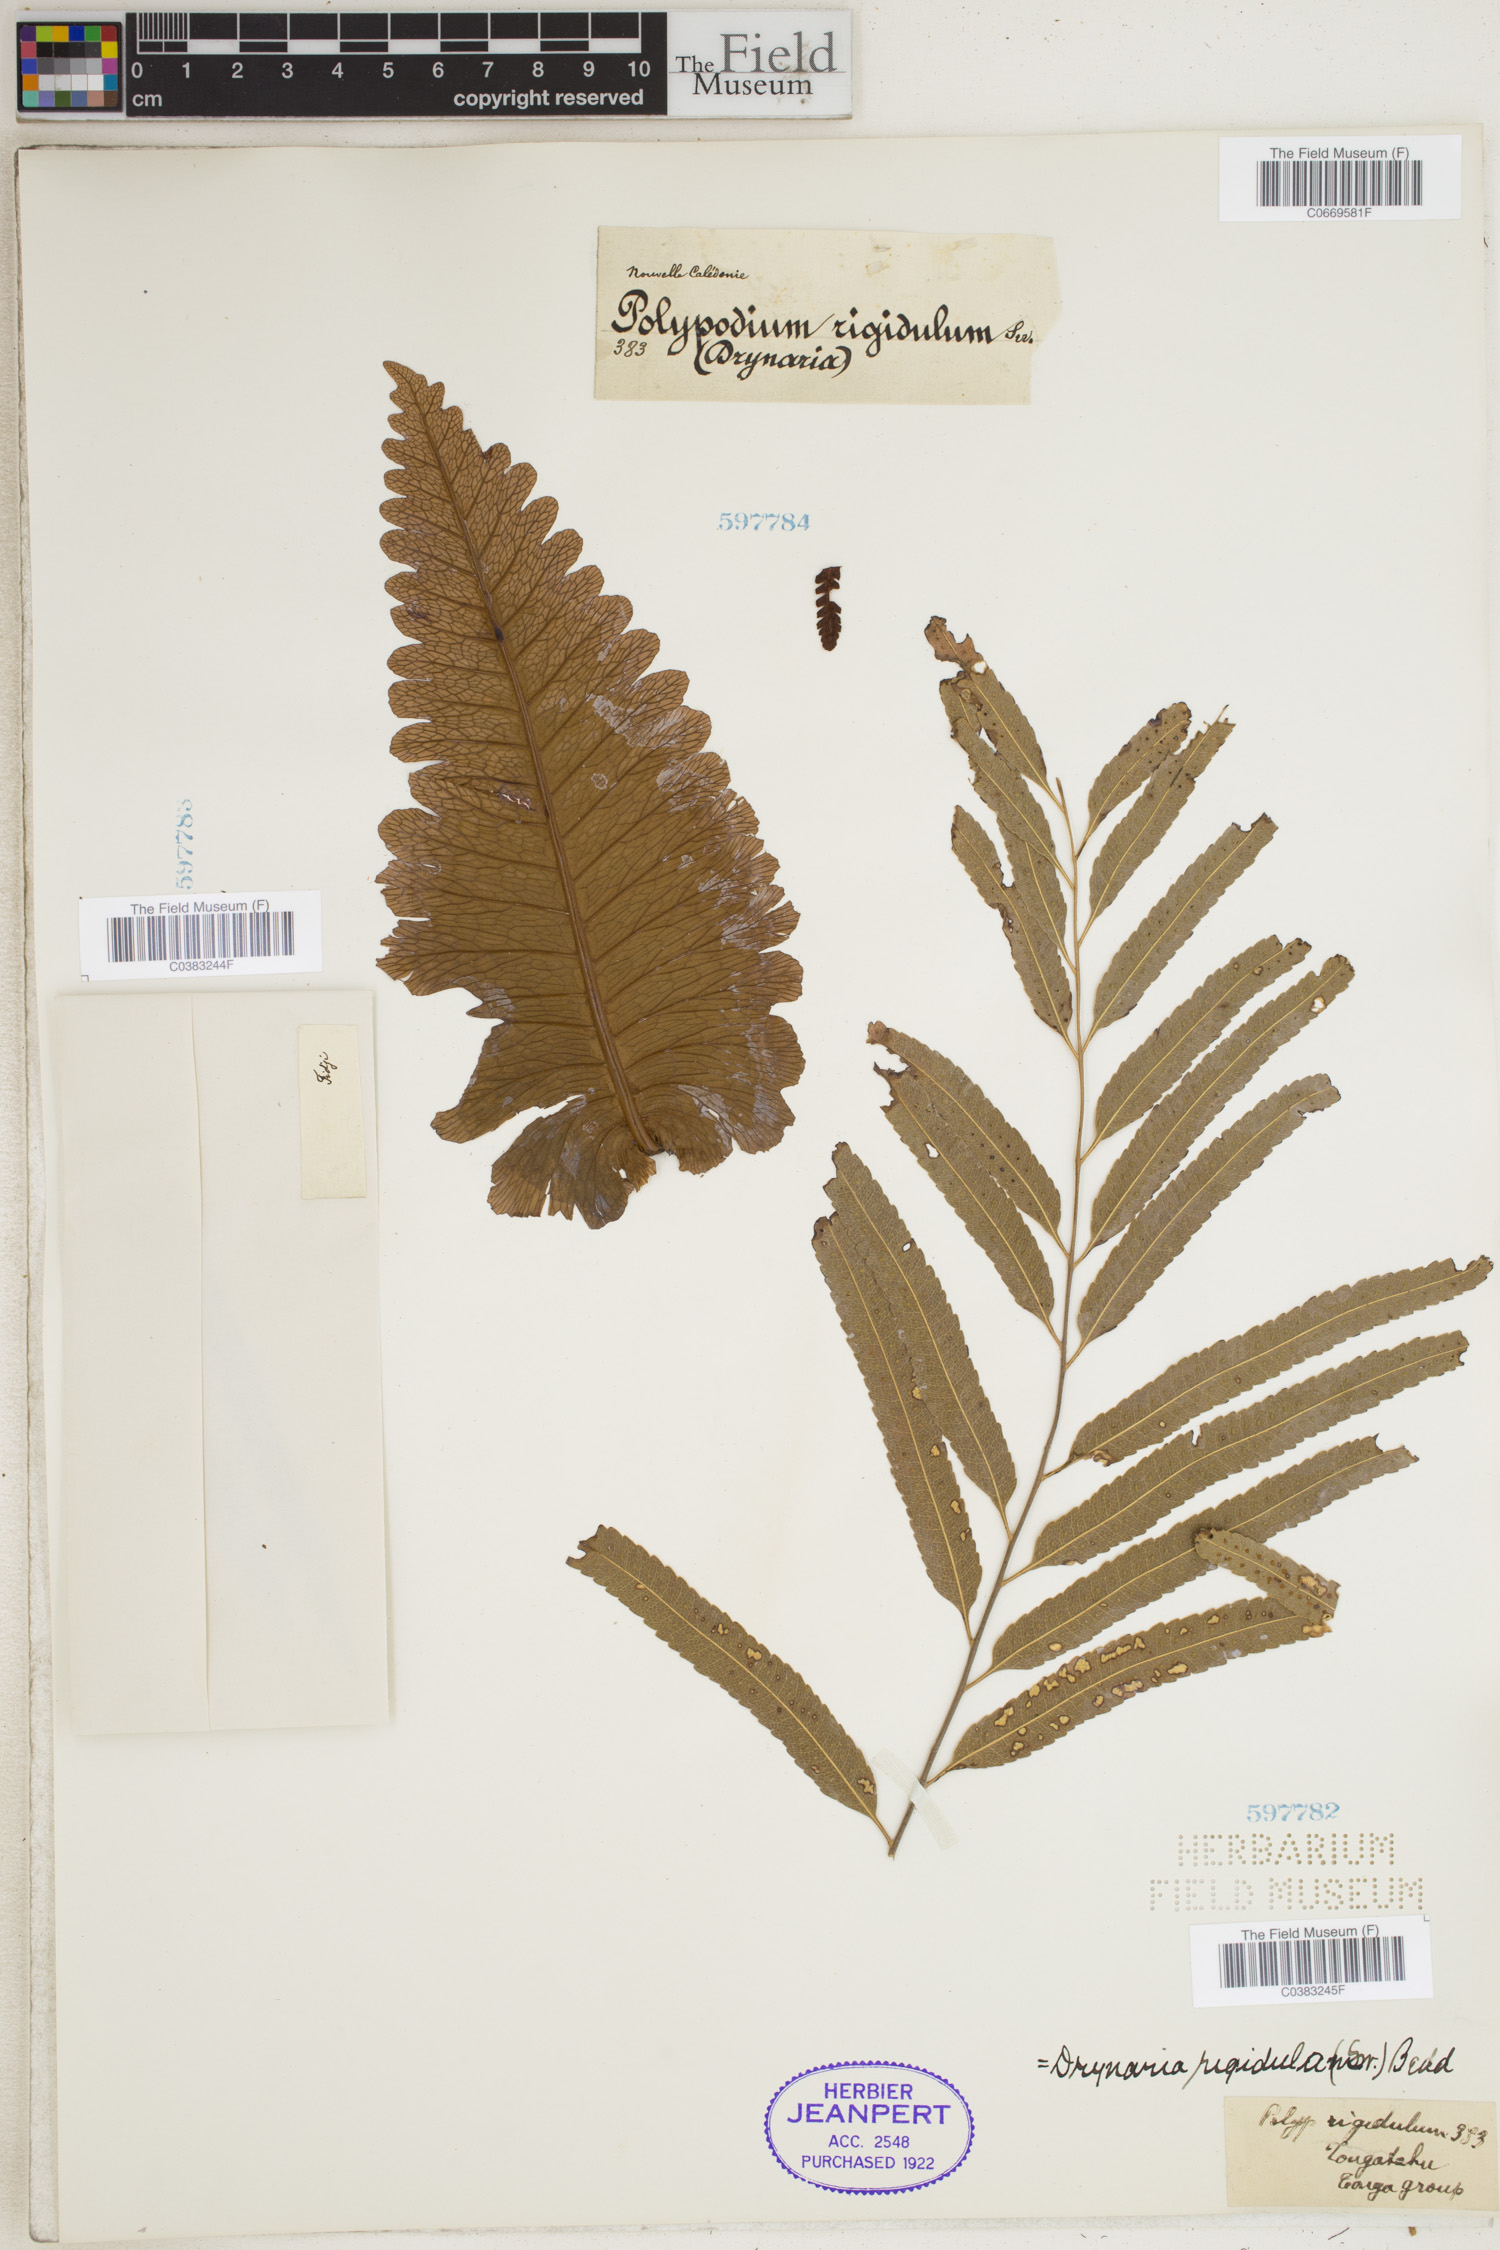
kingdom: Plantae
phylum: Tracheophyta
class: Polypodiopsida
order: Polypodiales
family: Polypodiaceae
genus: Drynaria
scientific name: Drynaria rigidula
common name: Basket fern
